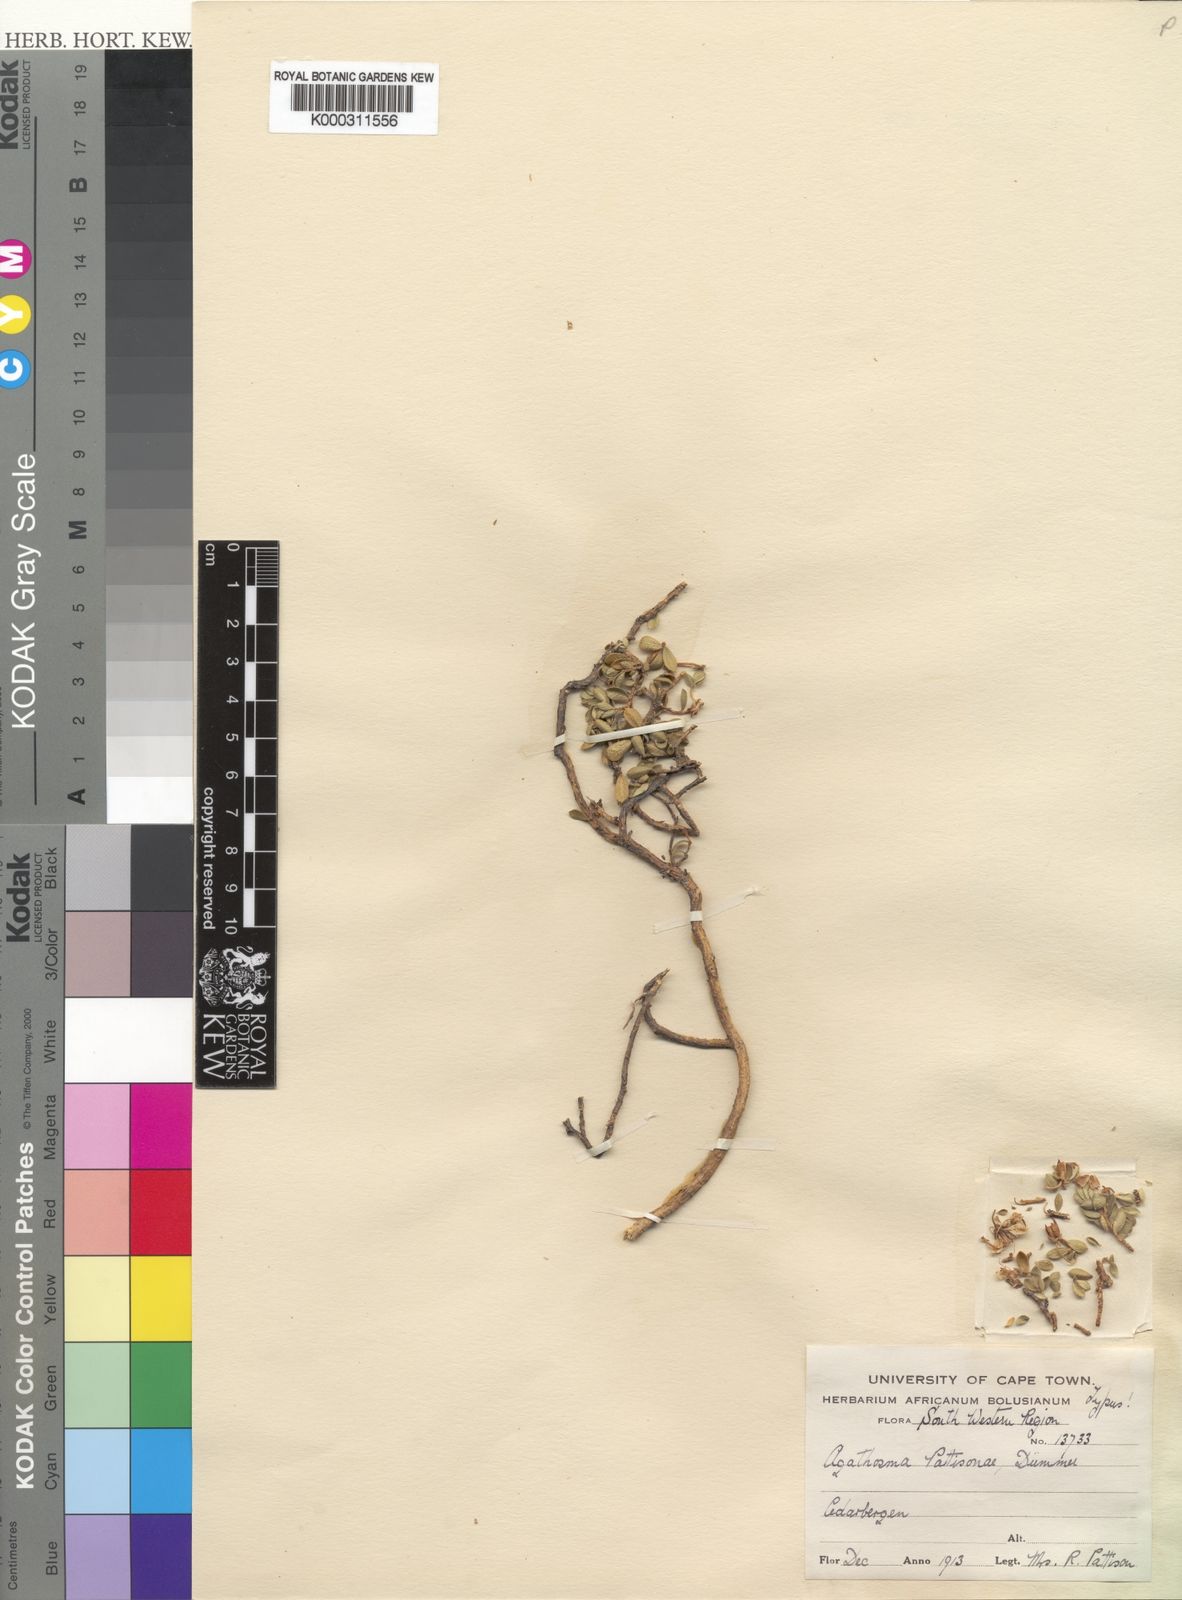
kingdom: Plantae
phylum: Tracheophyta
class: Magnoliopsida
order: Sapindales
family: Rutaceae
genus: Agathosma
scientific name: Agathosma pattisonae
